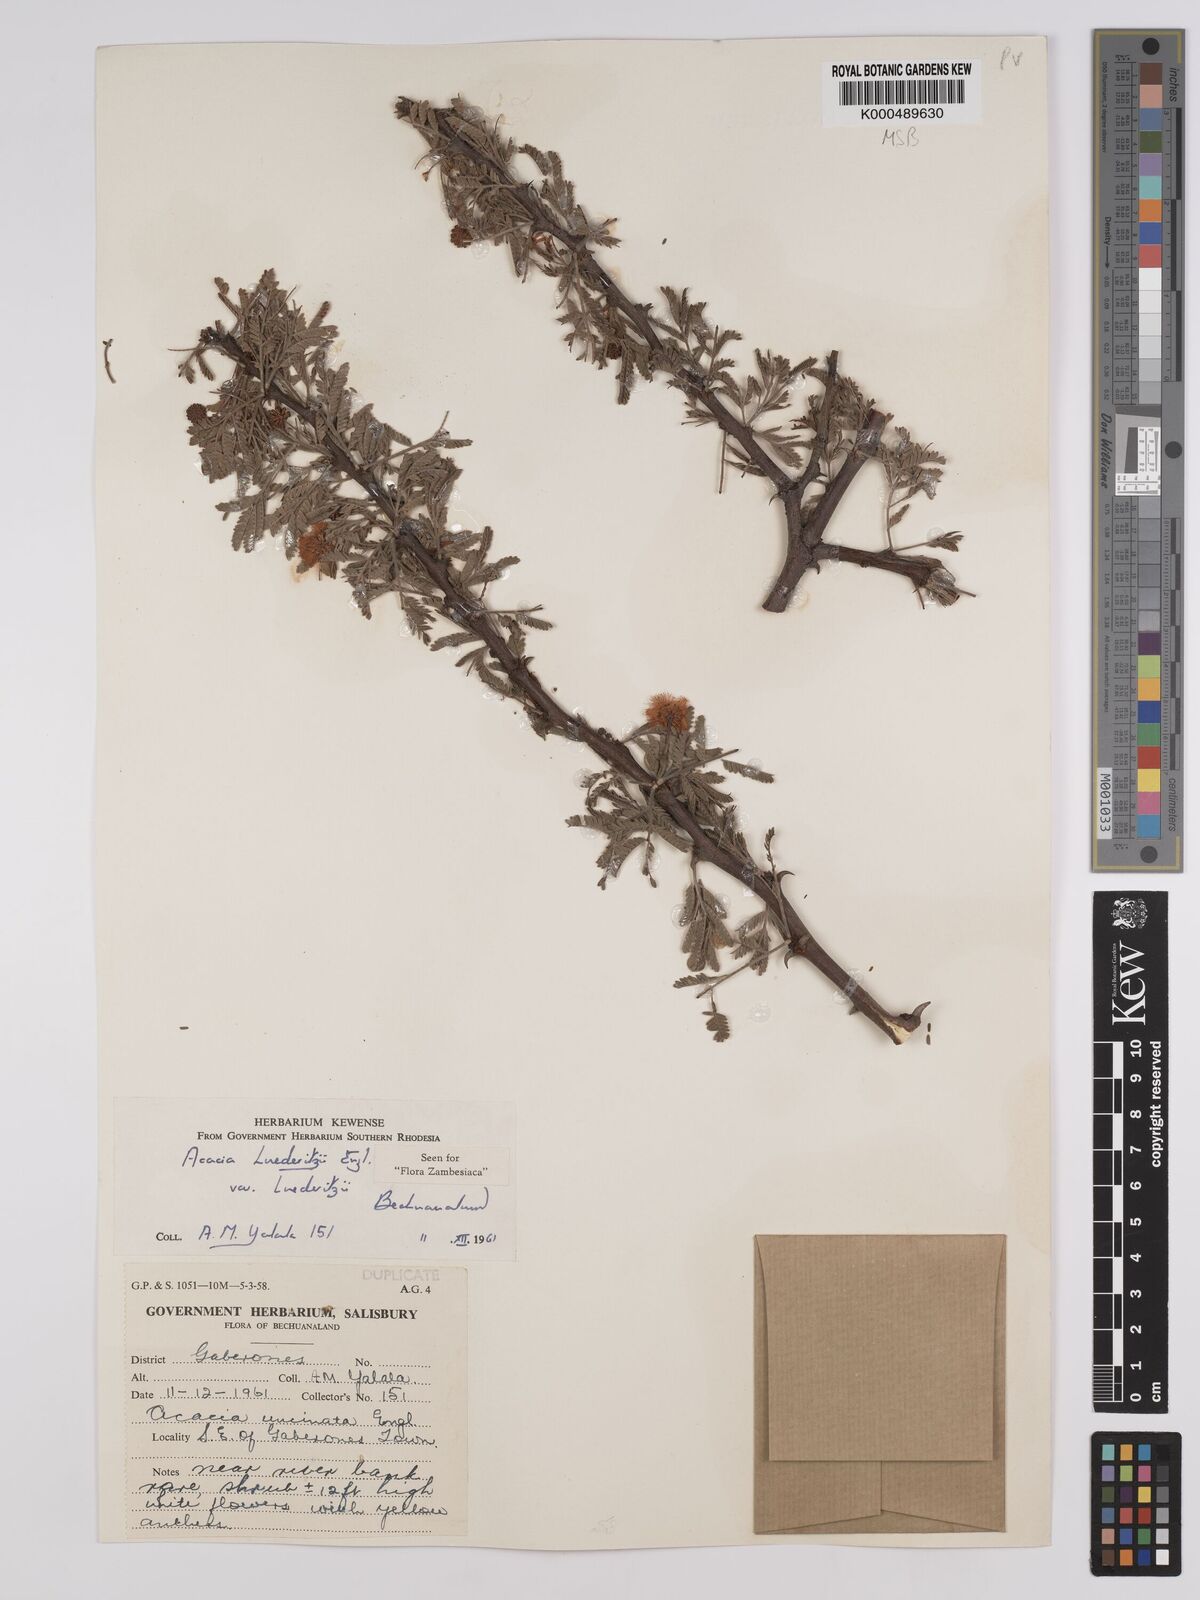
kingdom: Plantae
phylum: Tracheophyta
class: Magnoliopsida
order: Fabales
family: Fabaceae
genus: Vachellia
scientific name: Vachellia
